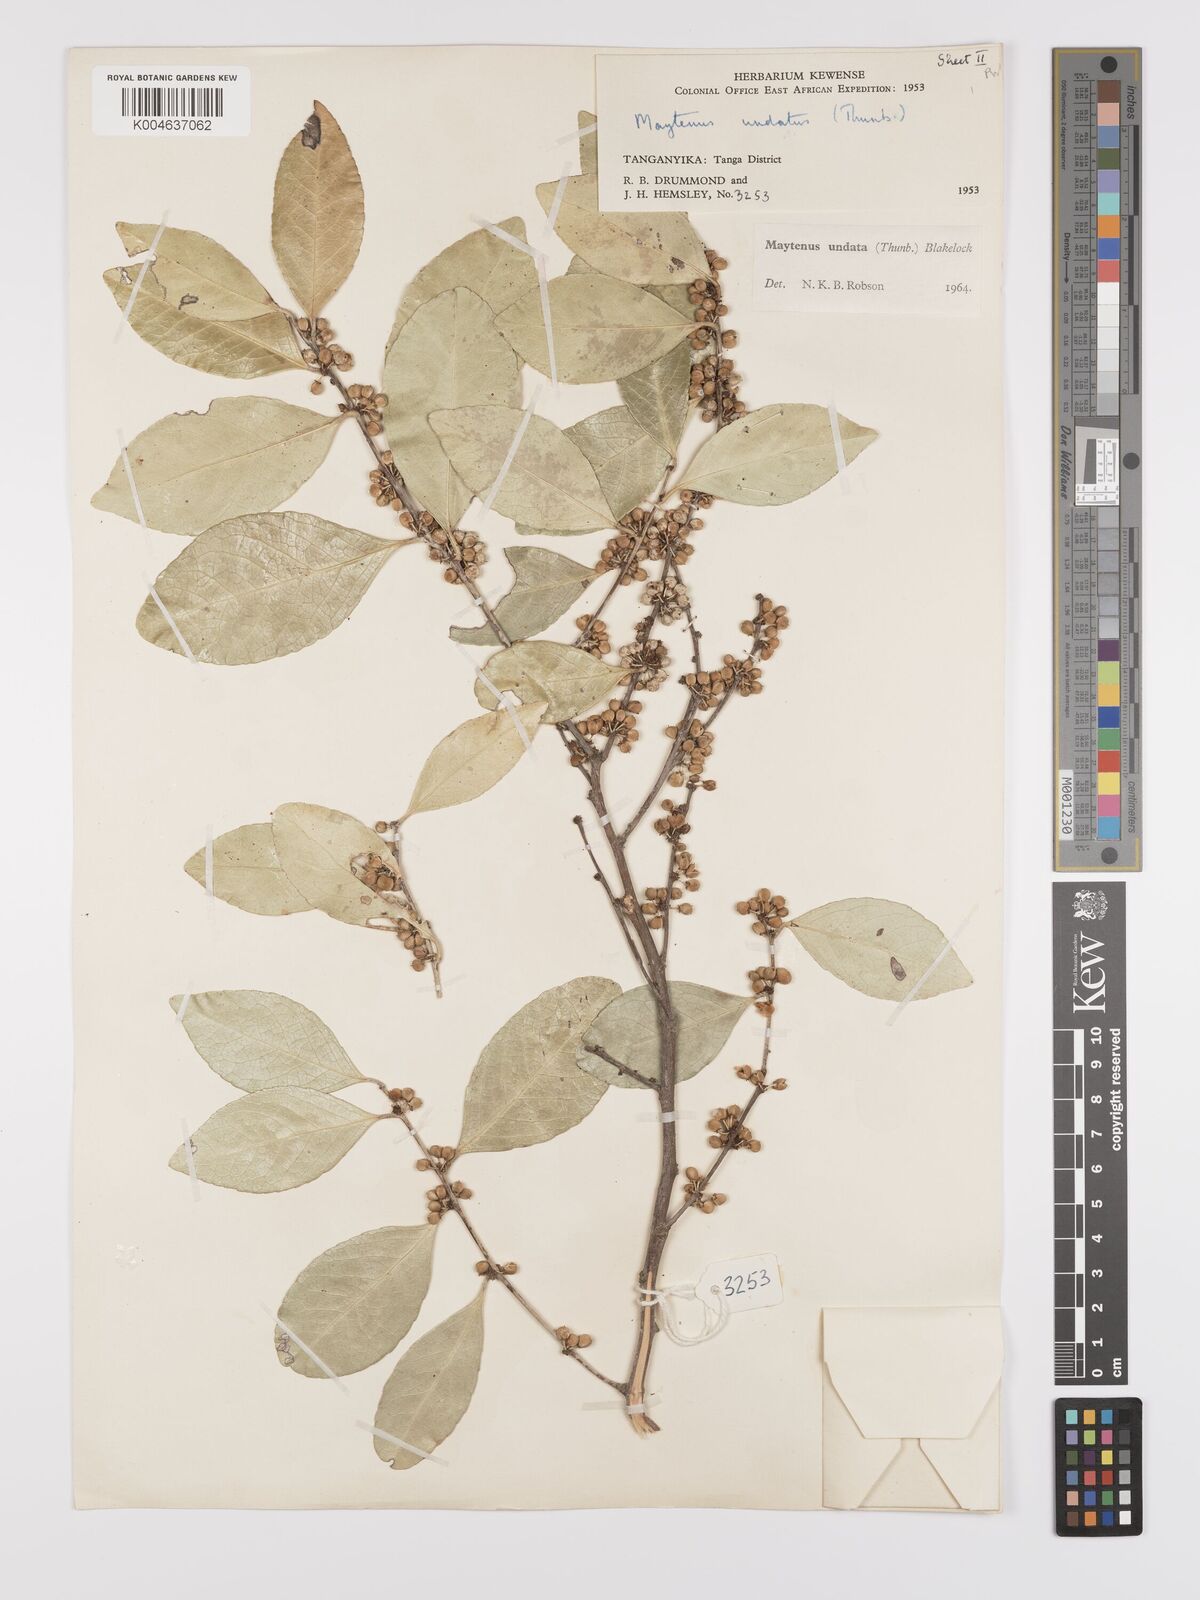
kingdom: Plantae
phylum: Tracheophyta
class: Magnoliopsida
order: Celastrales
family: Celastraceae
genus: Gymnosporia
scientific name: Gymnosporia undata
